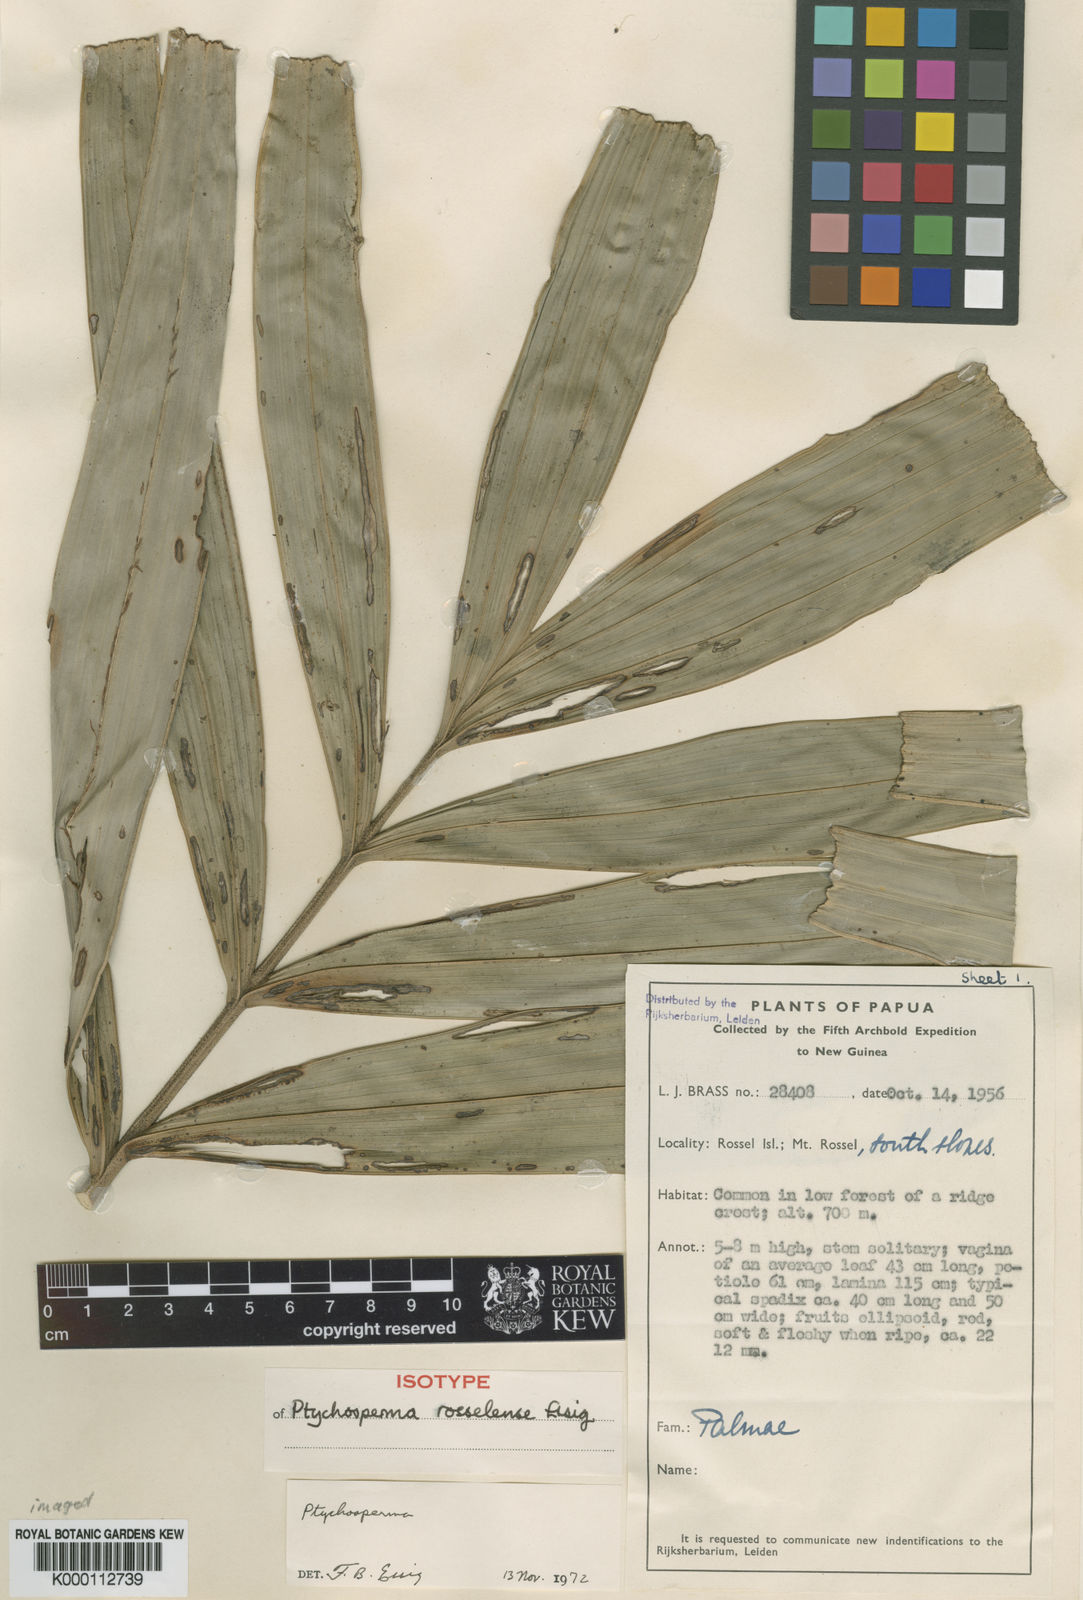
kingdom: Plantae
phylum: Tracheophyta
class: Liliopsida
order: Arecales
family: Arecaceae
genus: Ptychosperma
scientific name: Ptychosperma rosselense
